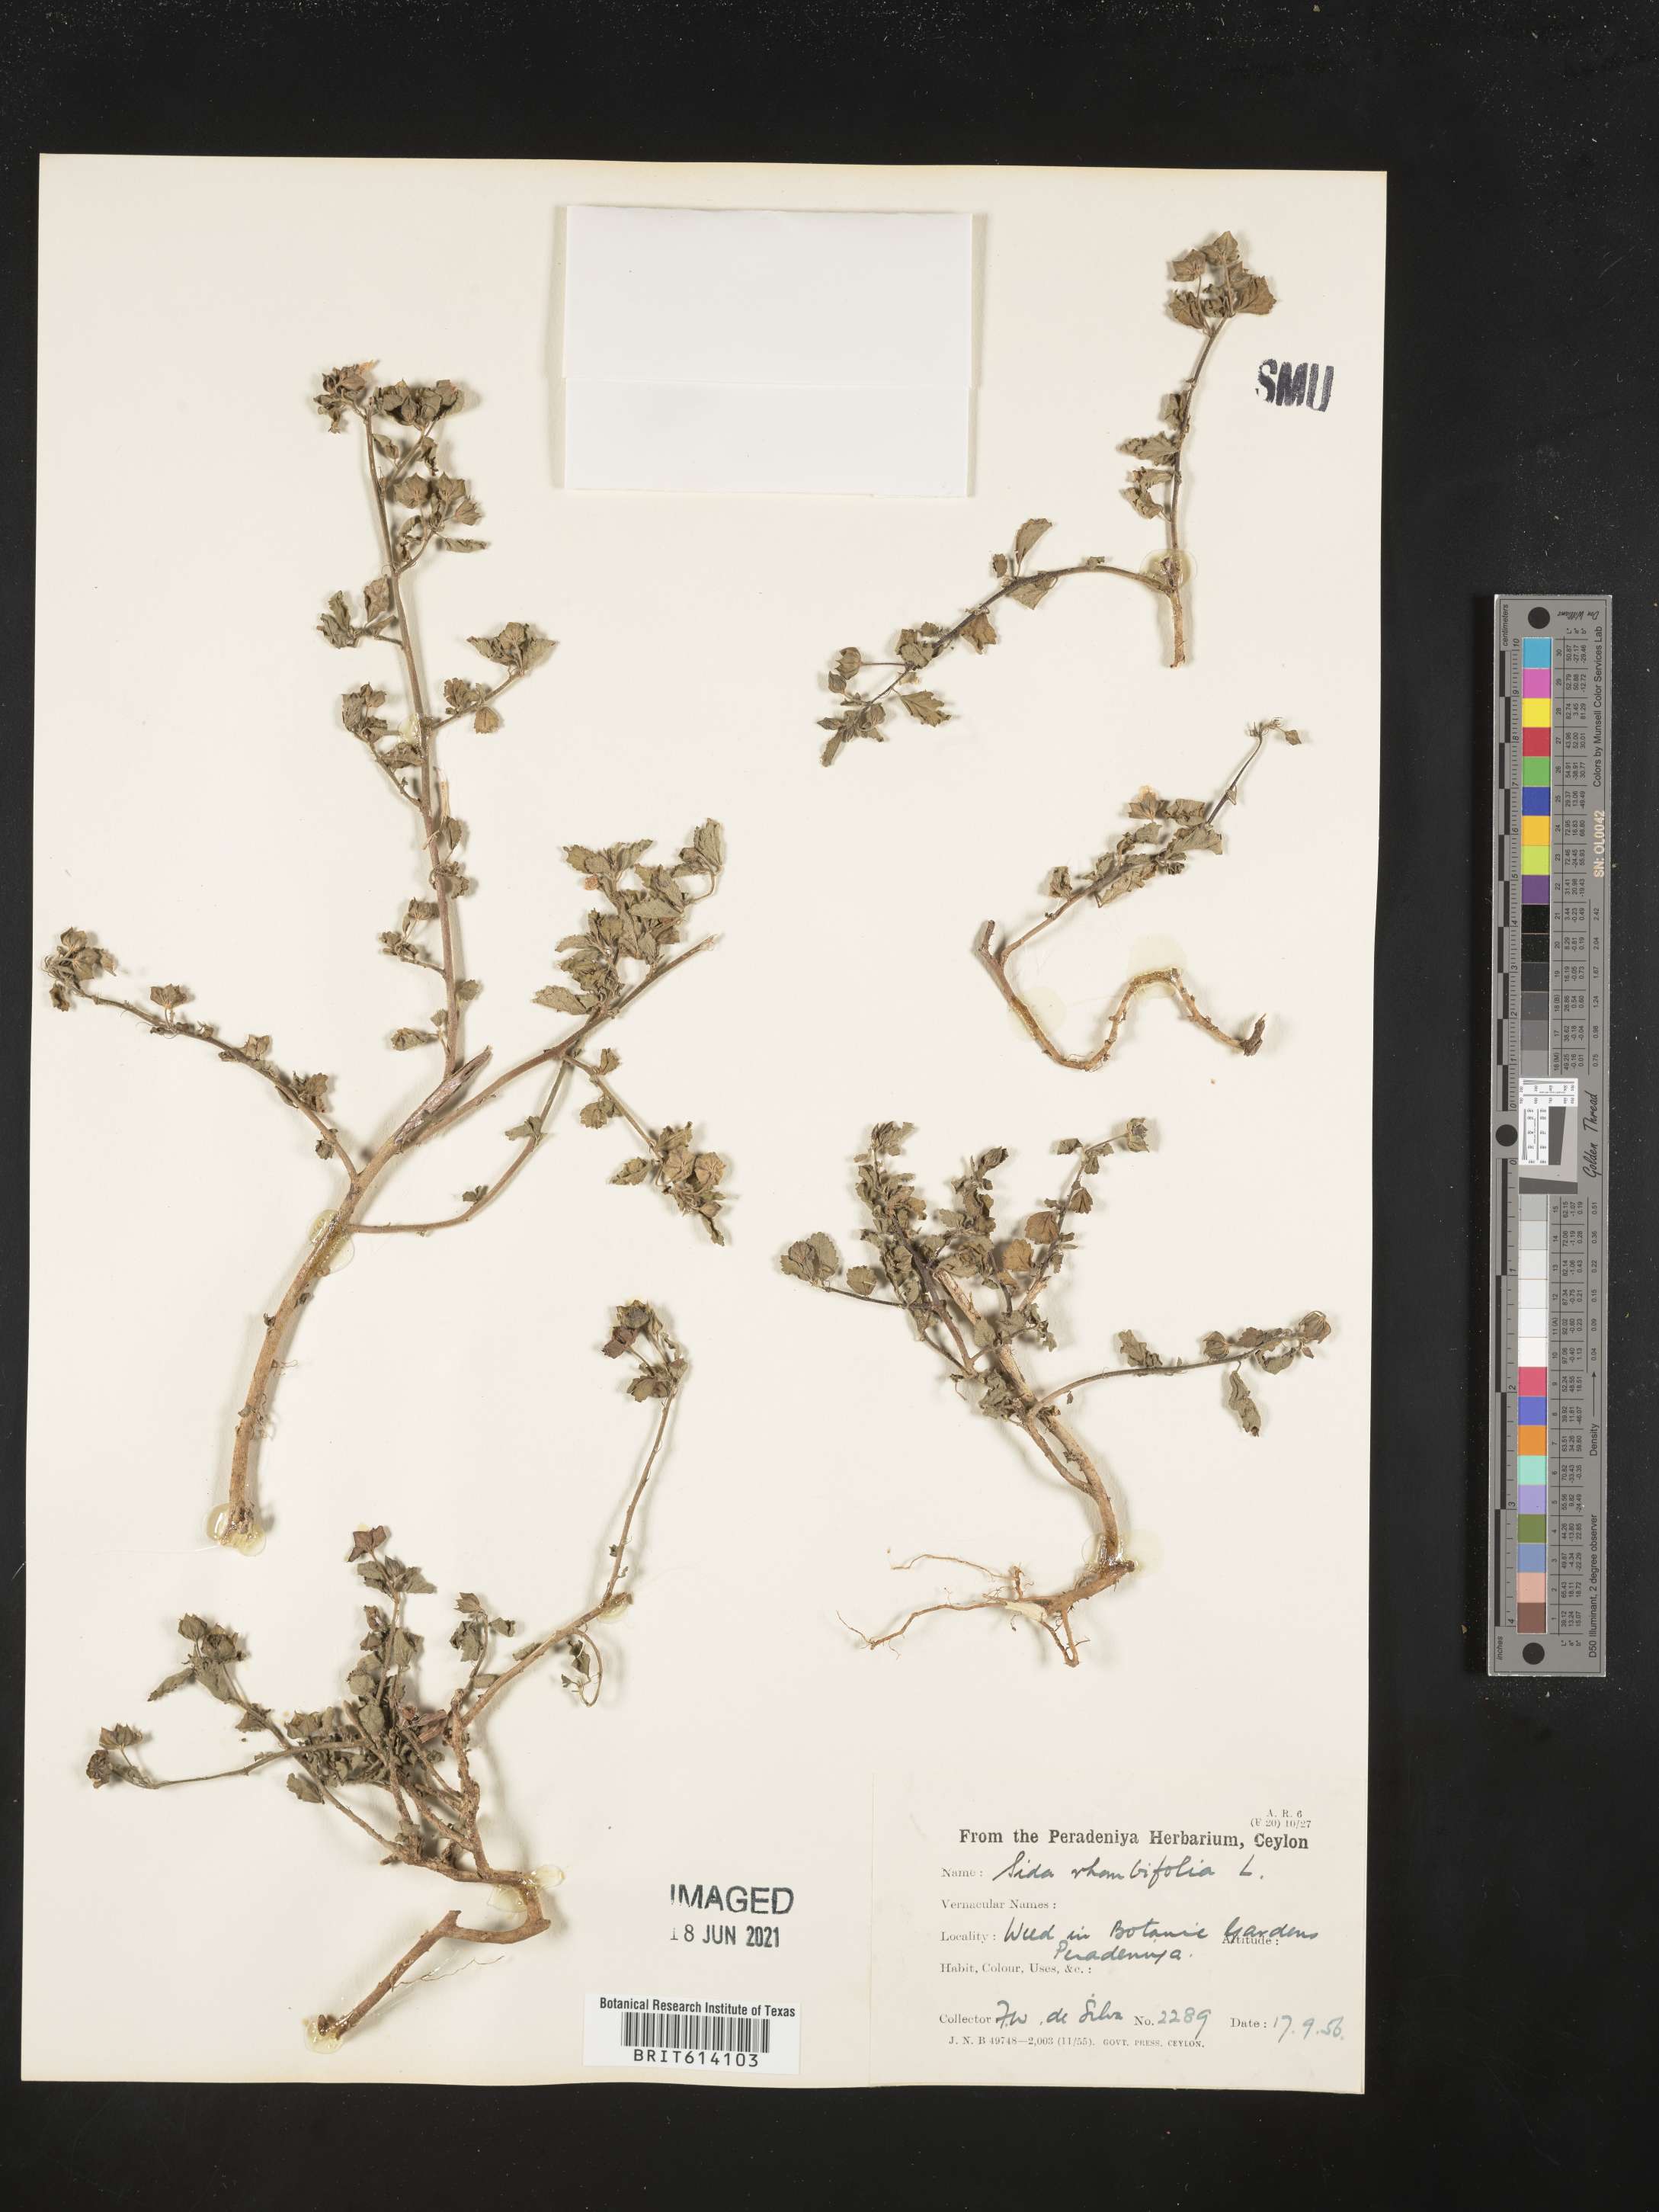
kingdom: Plantae
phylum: Tracheophyta
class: Magnoliopsida
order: Malvales
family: Malvaceae
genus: Sida
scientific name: Sida rhombifolia
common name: Queensland-hemp
